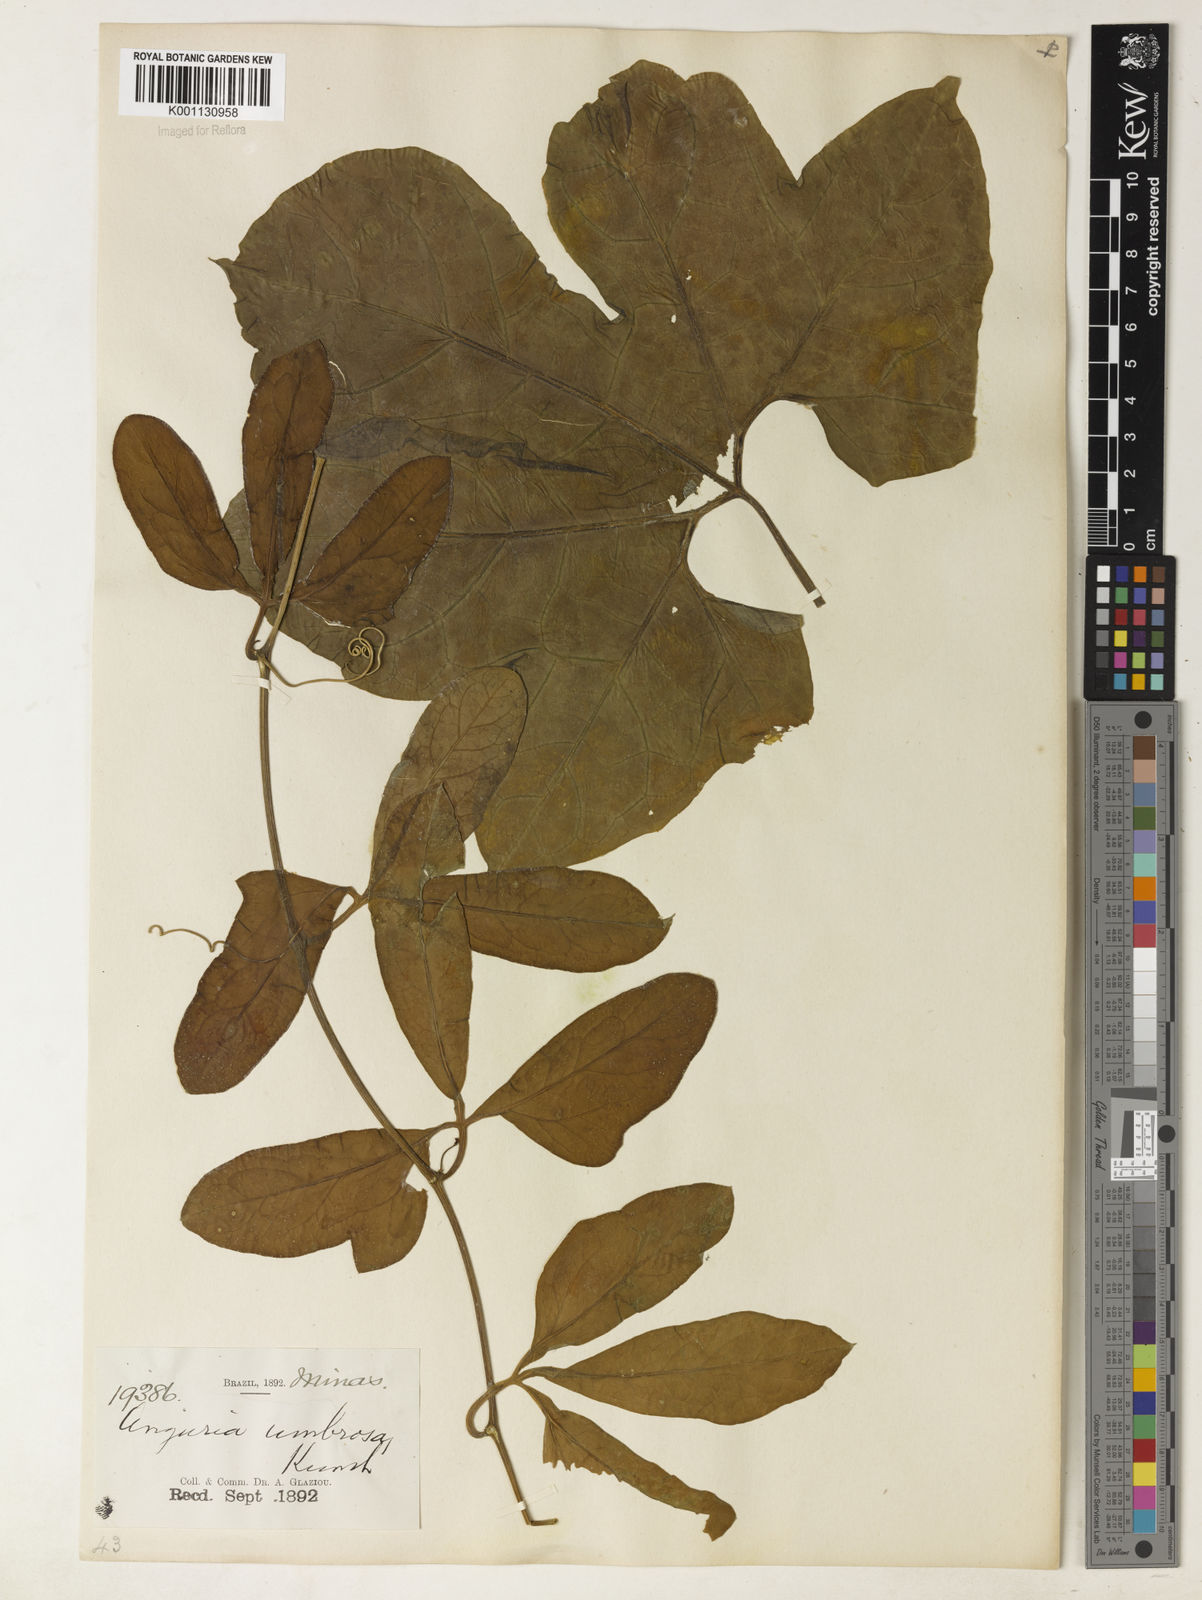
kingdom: Plantae
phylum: Tracheophyta
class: Magnoliopsida
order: Cucurbitales
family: Cucurbitaceae
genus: Psiguria
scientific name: Psiguria ternata
